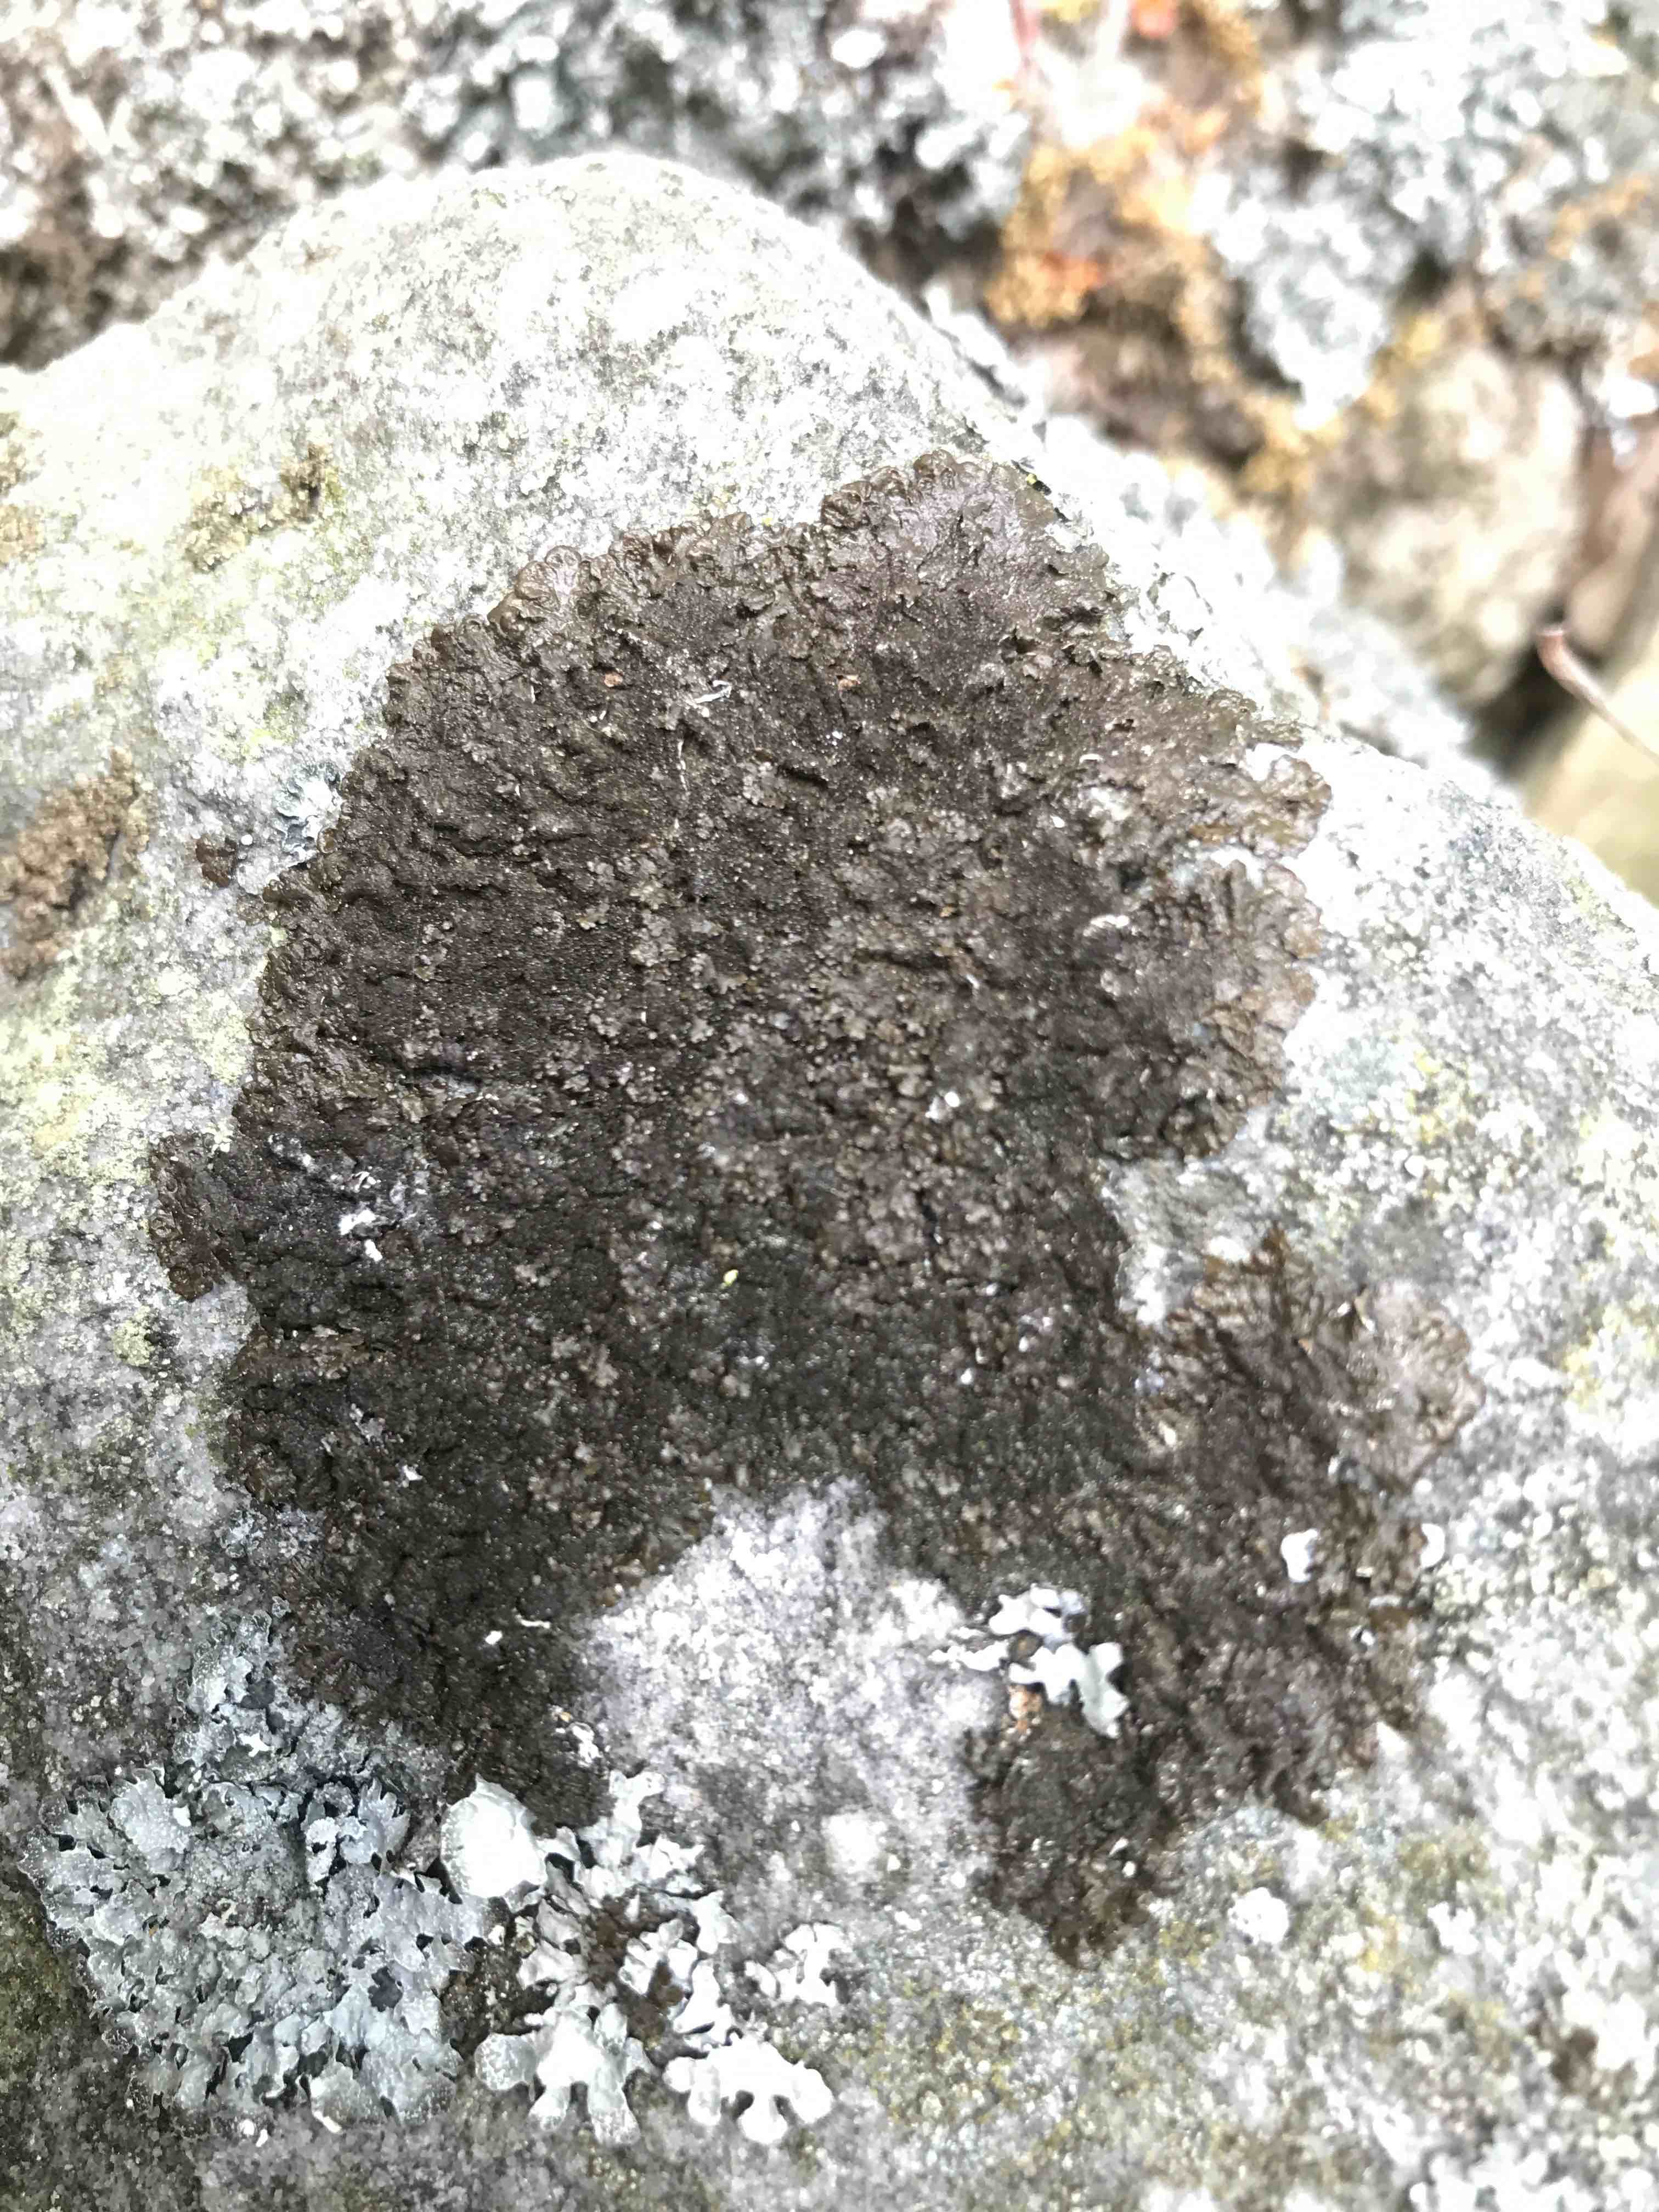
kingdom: Fungi
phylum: Ascomycota
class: Lecanoromycetes
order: Lecanorales
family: Parmeliaceae
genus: Melanelixia
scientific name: Melanelixia fuliginosa
